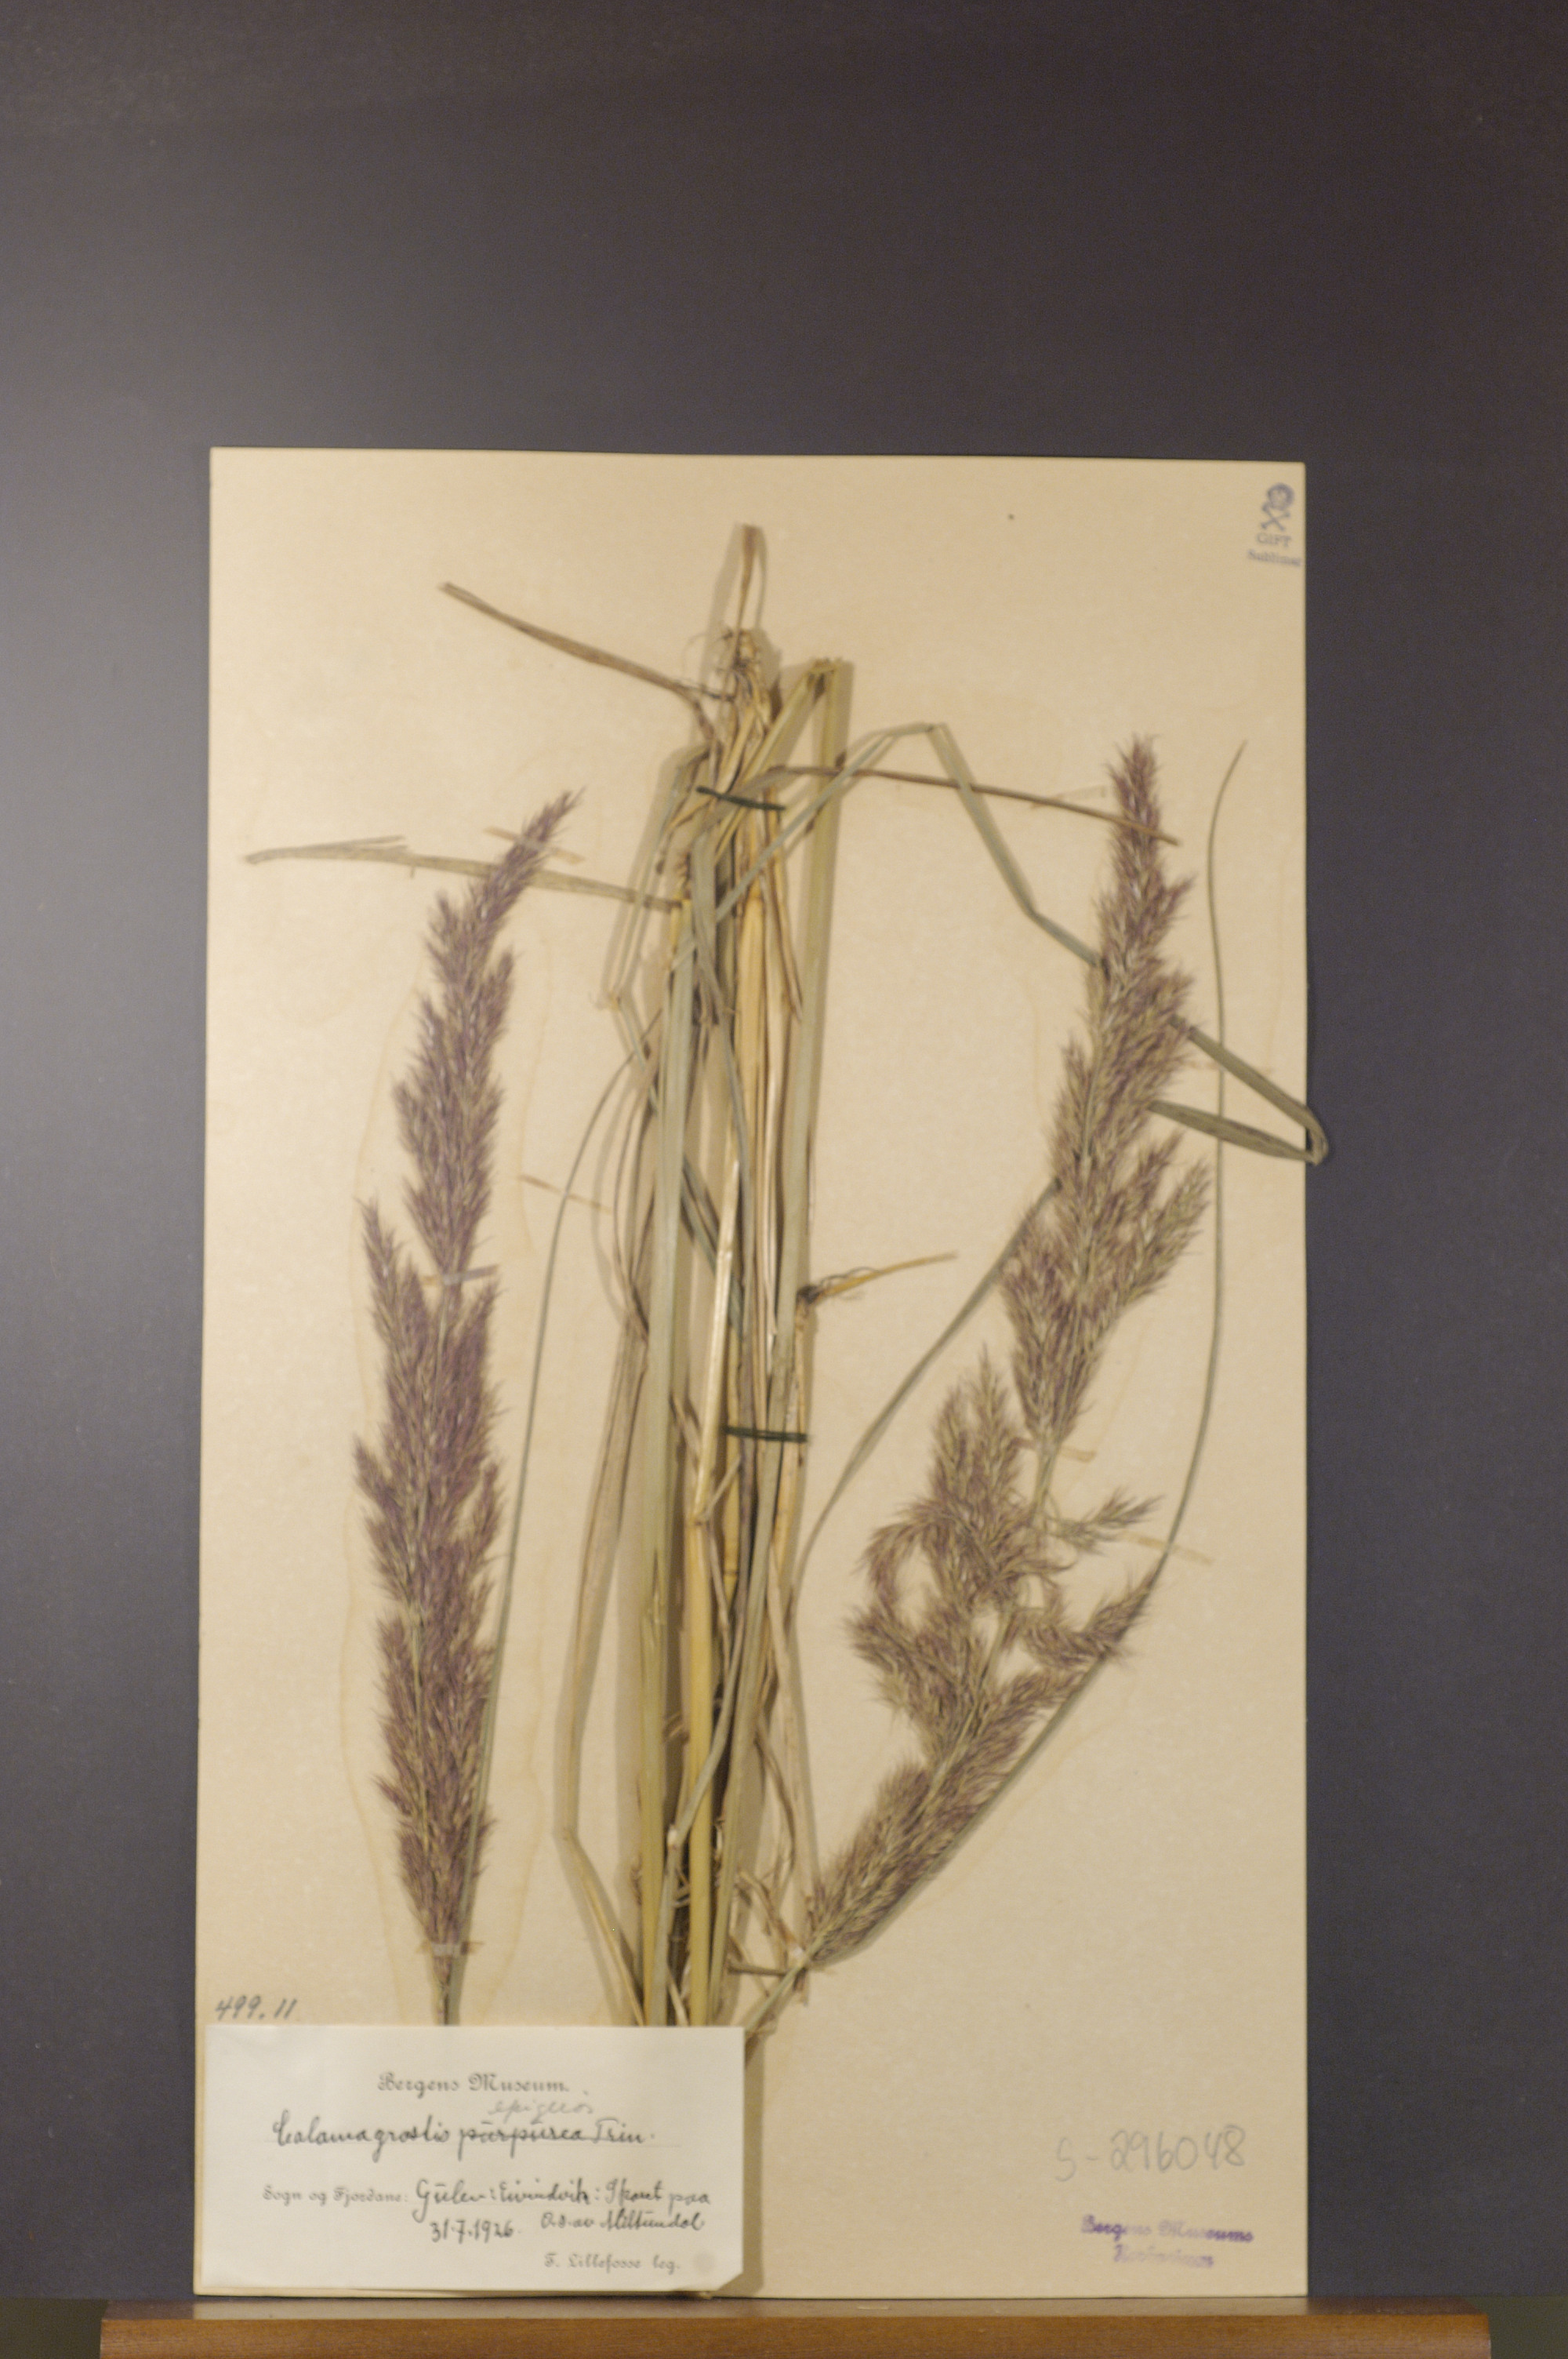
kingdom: Plantae
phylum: Tracheophyta
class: Liliopsida
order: Poales
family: Poaceae
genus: Calamagrostis
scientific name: Calamagrostis epigejos
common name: Wood small-reed
